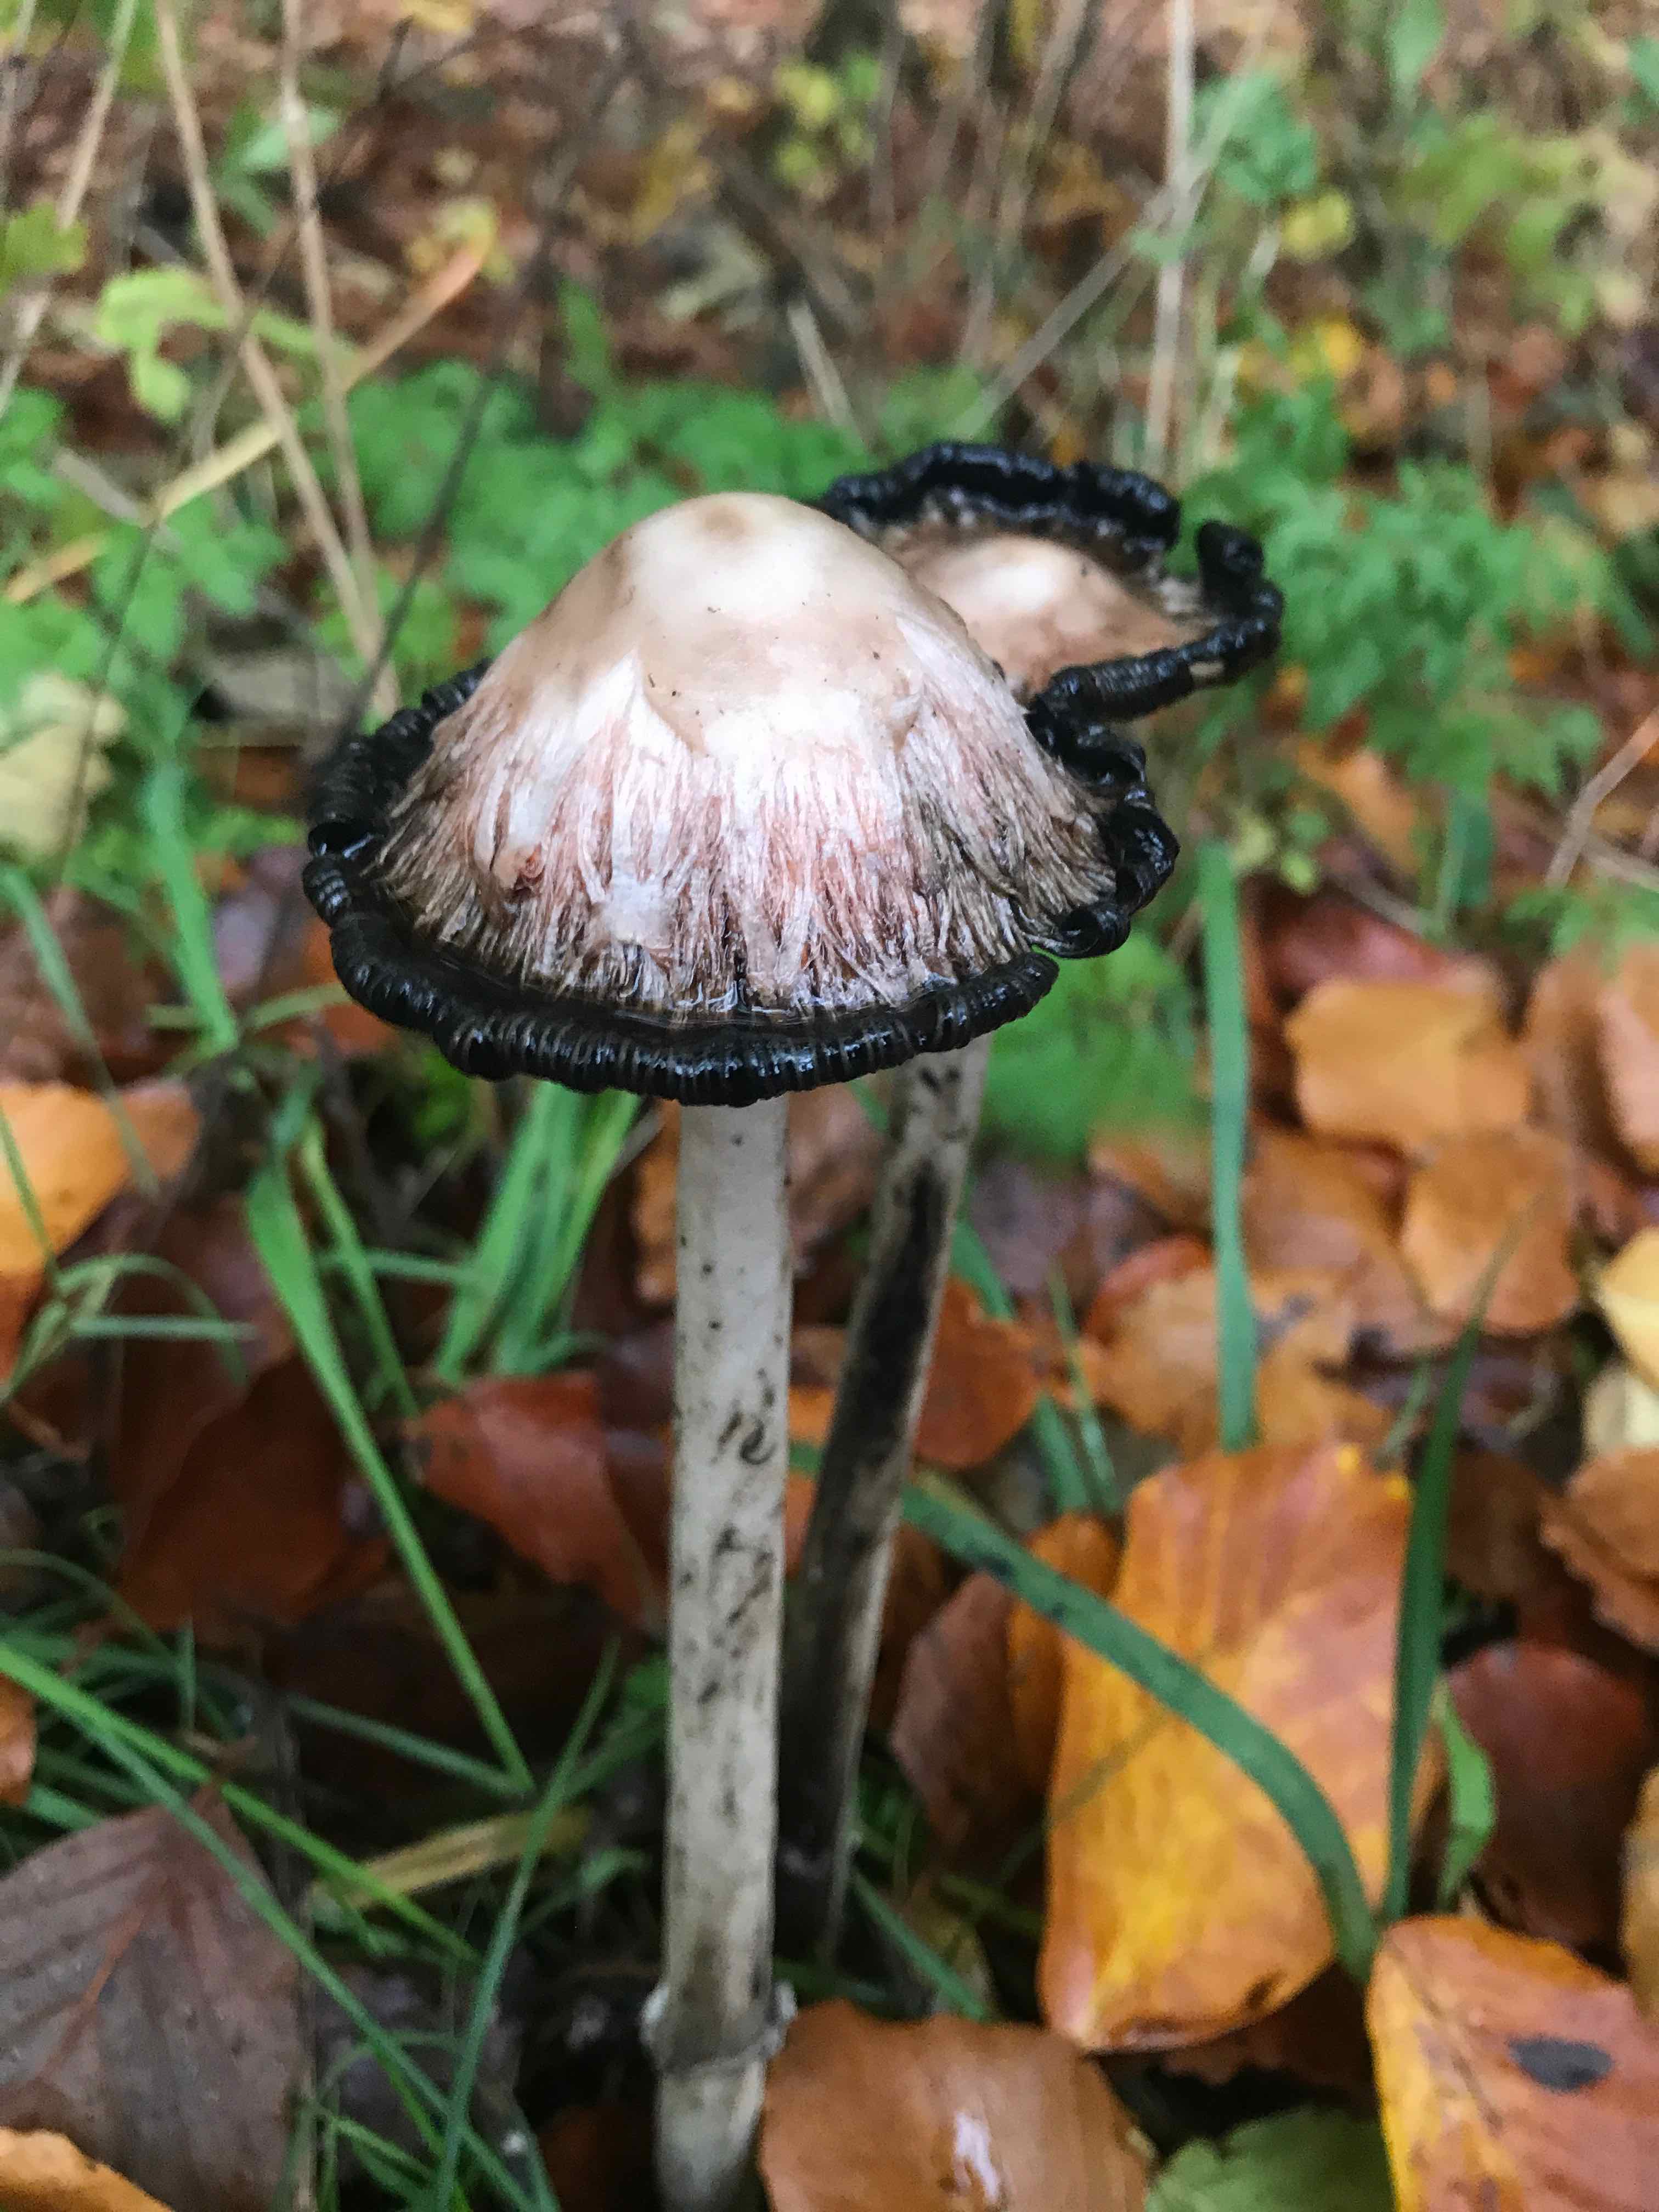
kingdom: Fungi
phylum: Basidiomycota
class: Agaricomycetes
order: Agaricales
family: Agaricaceae
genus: Coprinus
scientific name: Coprinus comatus
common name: stor parykhat
